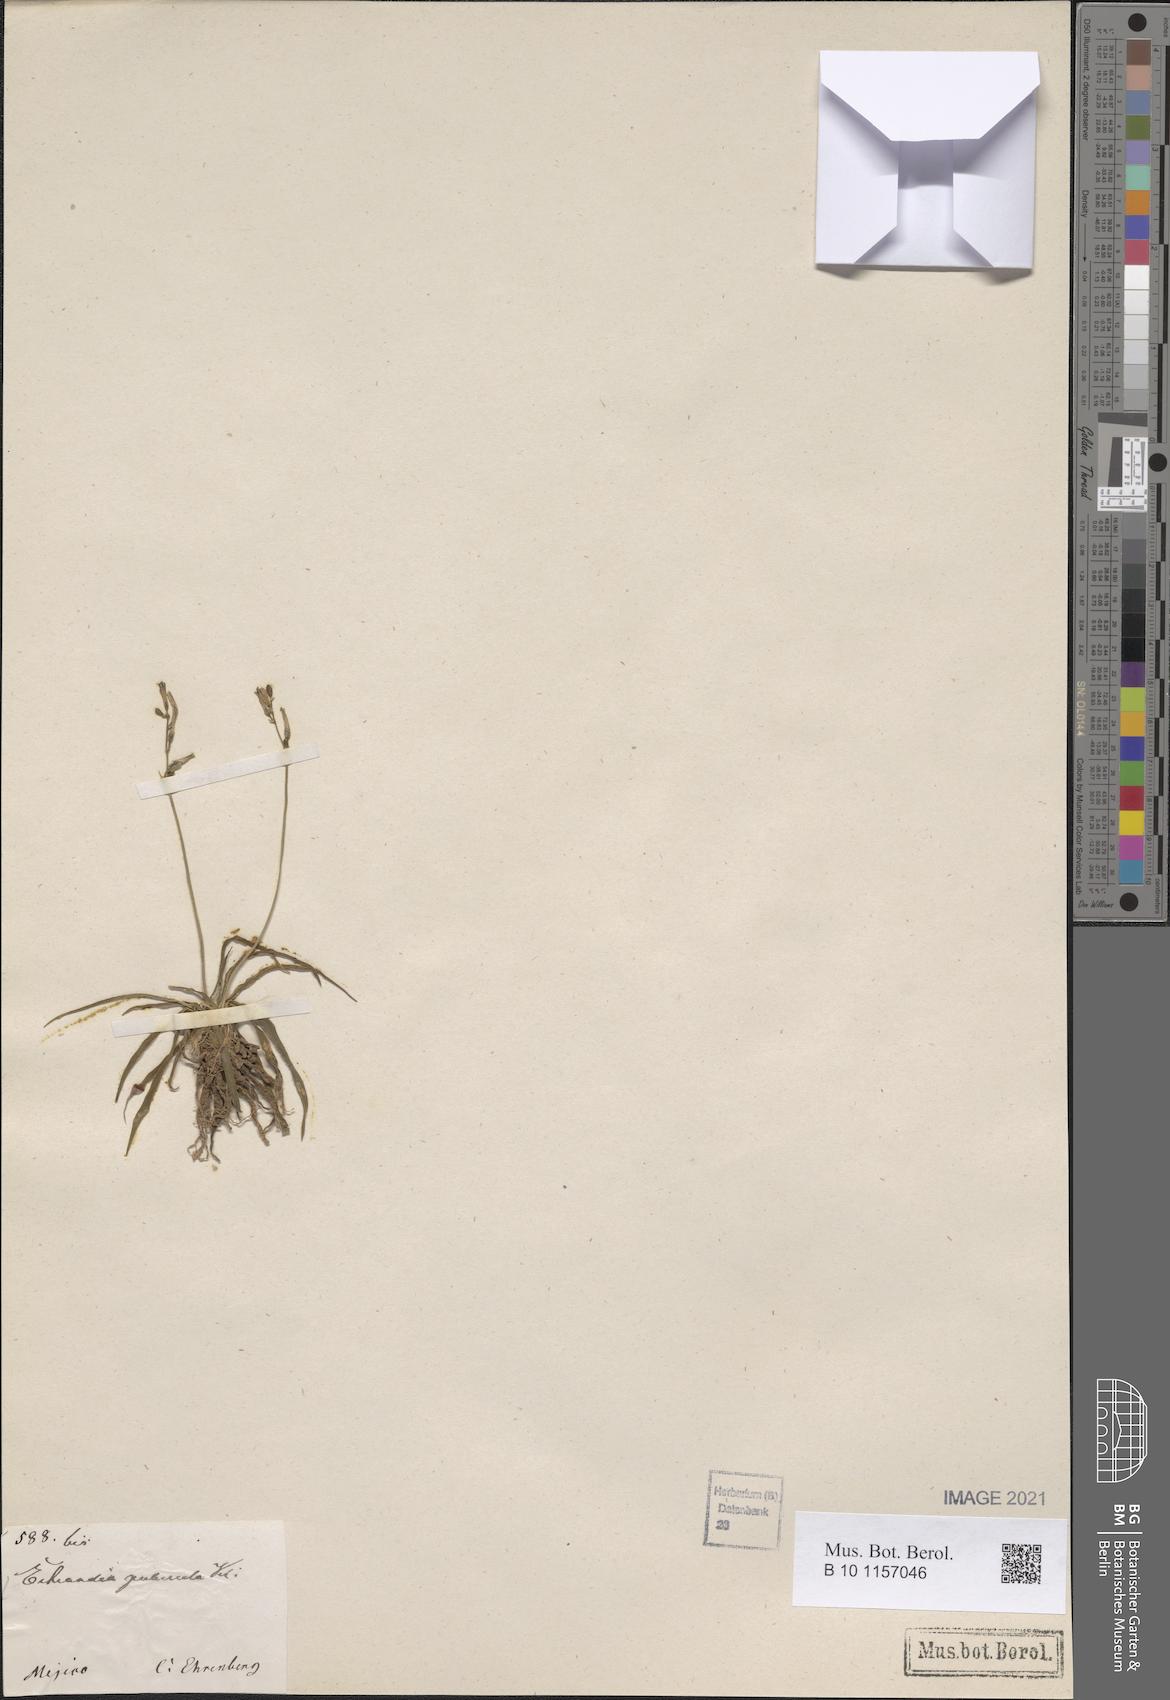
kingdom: Plantae
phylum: Tracheophyta
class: Liliopsida
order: Asparagales
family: Asparagaceae
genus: Echeandia
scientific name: Echeandia
